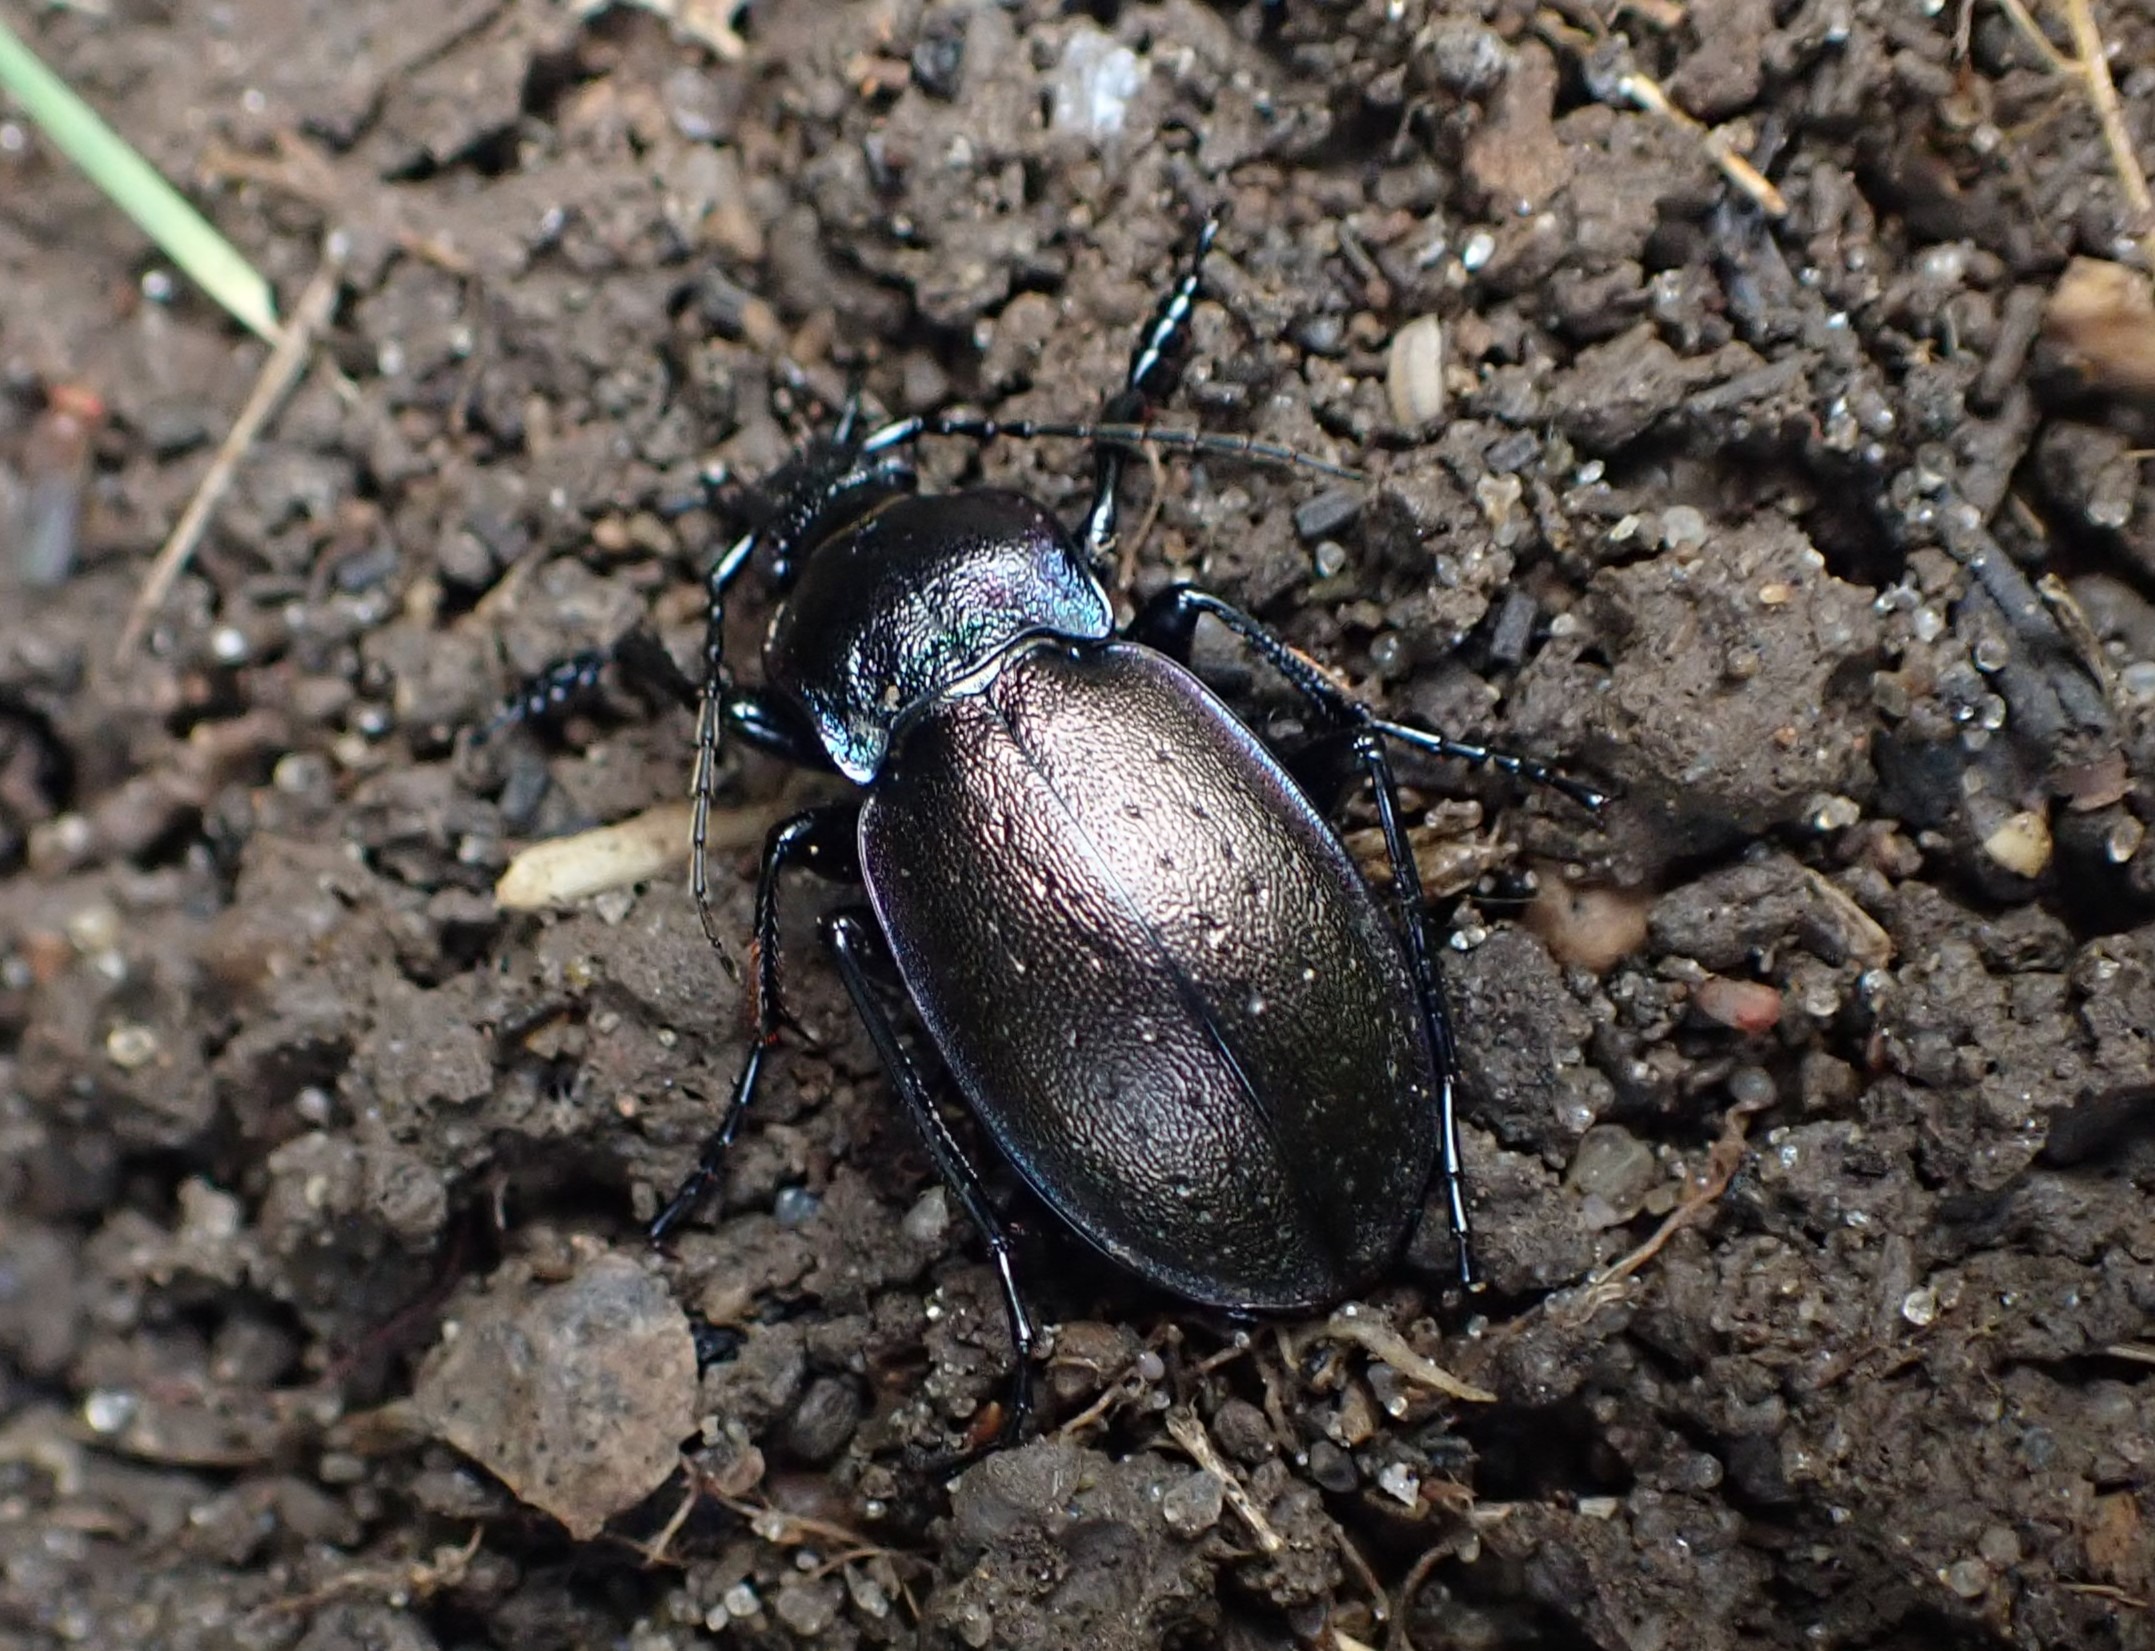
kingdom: Animalia
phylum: Arthropoda
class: Insecta
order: Coleoptera
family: Carabidae
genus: Carabus
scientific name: Carabus nemoralis
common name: Kratløber
